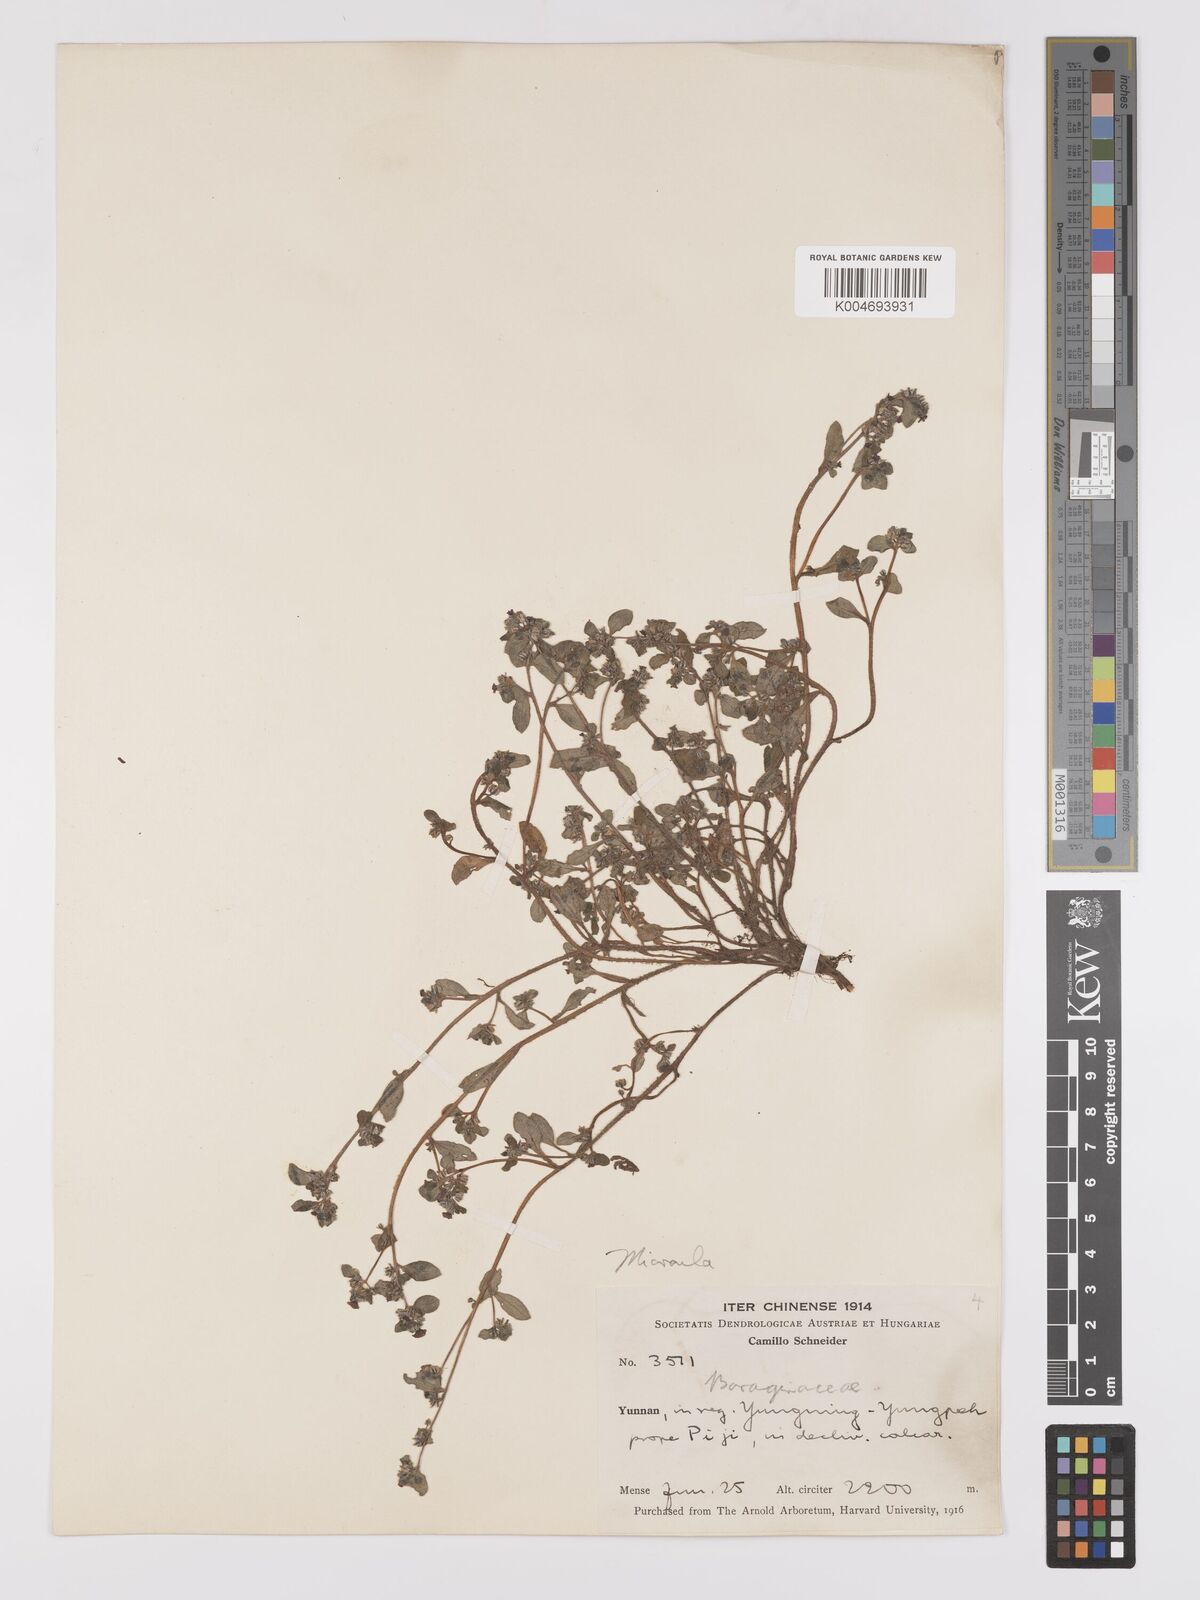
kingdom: Plantae
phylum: Tracheophyta
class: Magnoliopsida
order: Boraginales
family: Boraginaceae
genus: Microula
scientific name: Microula
